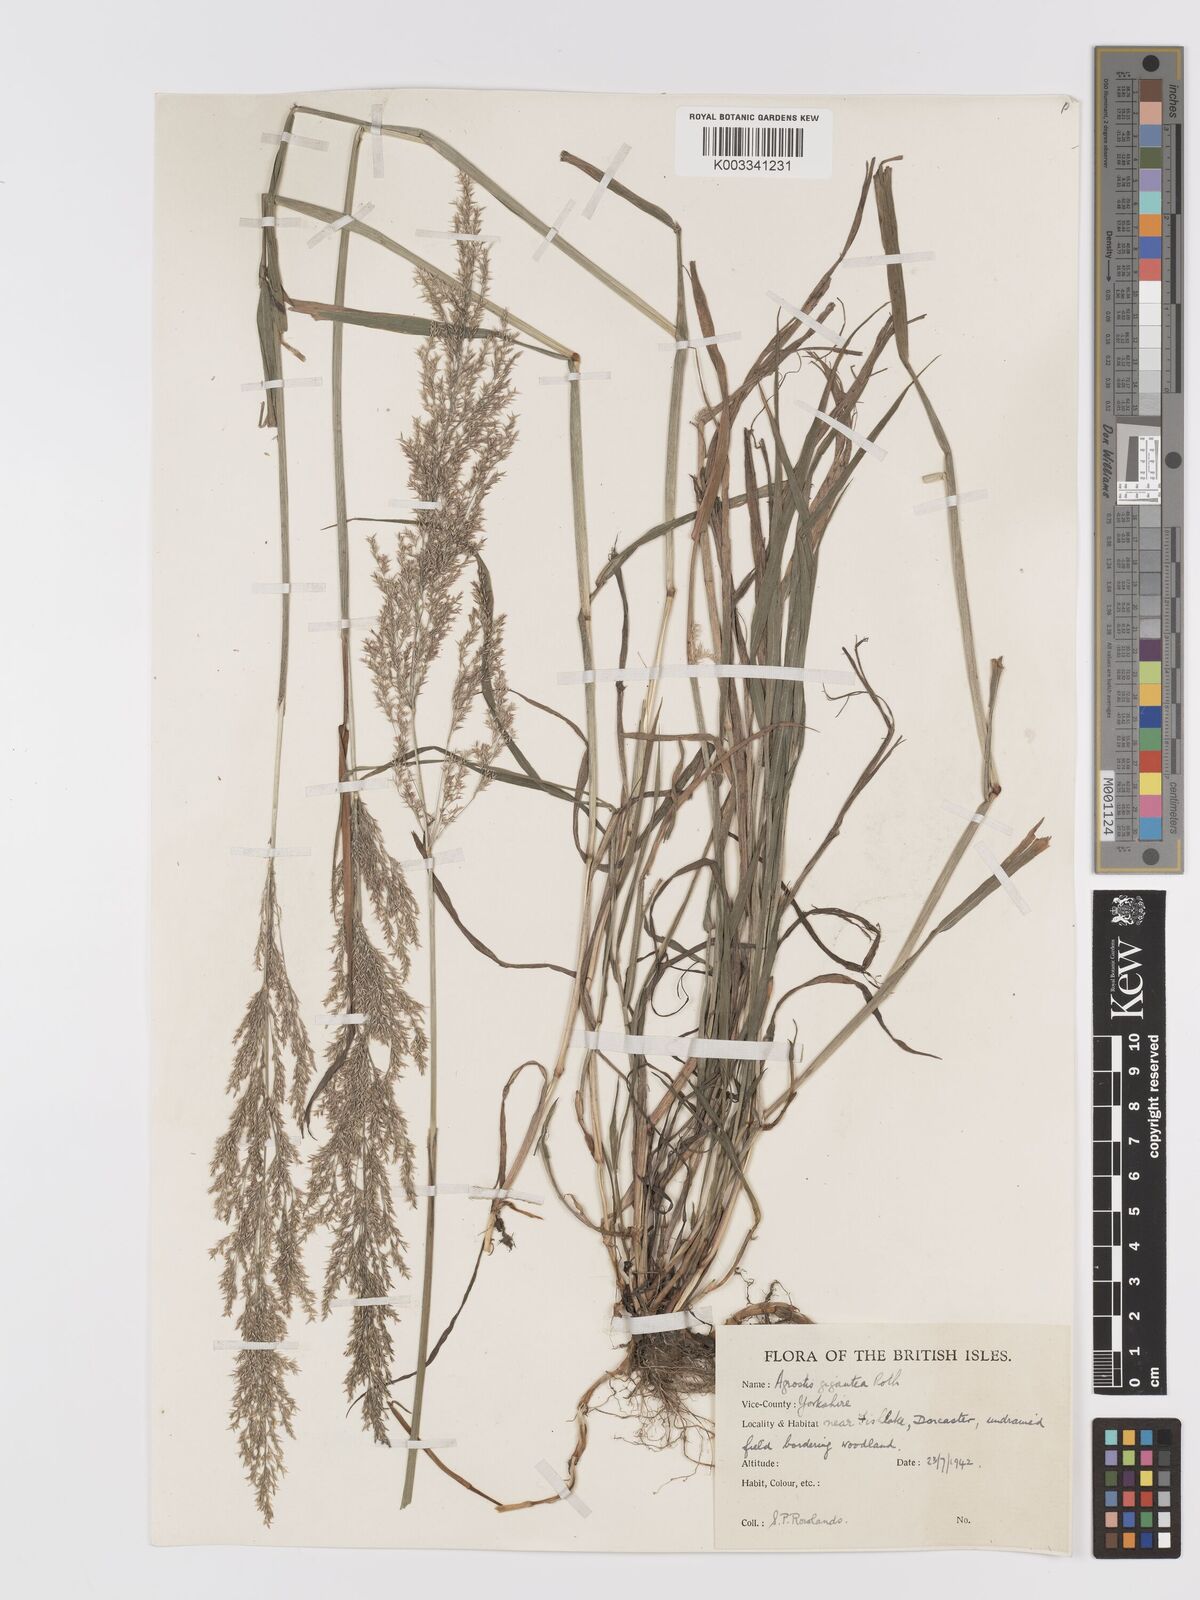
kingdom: Plantae
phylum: Tracheophyta
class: Liliopsida
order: Poales
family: Poaceae
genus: Agrostis
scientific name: Agrostis gigantea
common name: Black bent
